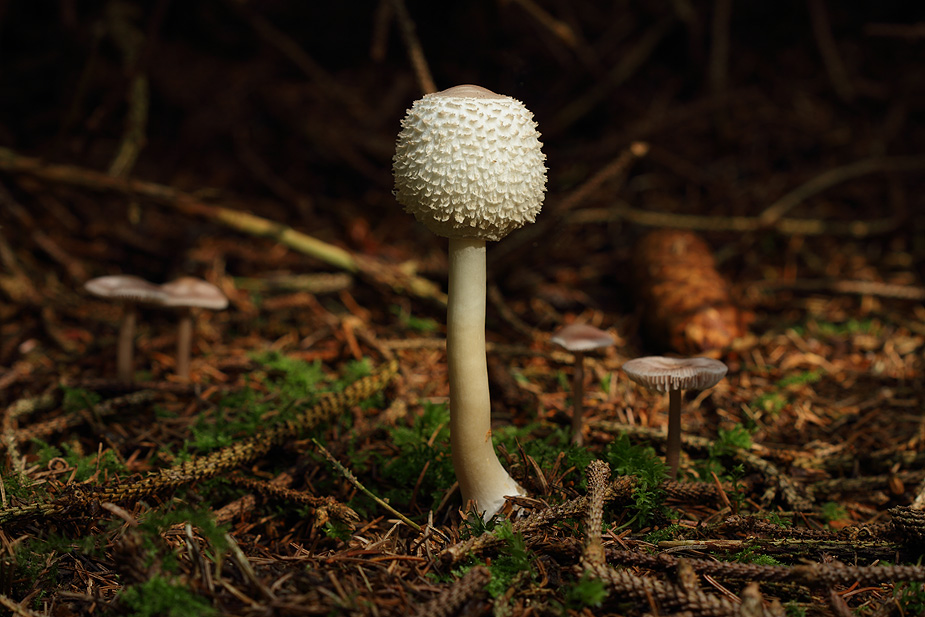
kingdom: Fungi
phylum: Basidiomycota
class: Agaricomycetes
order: Agaricales
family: Agaricaceae
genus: Leucoagaricus
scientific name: Leucoagaricus nympharum
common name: gran-silkehat
